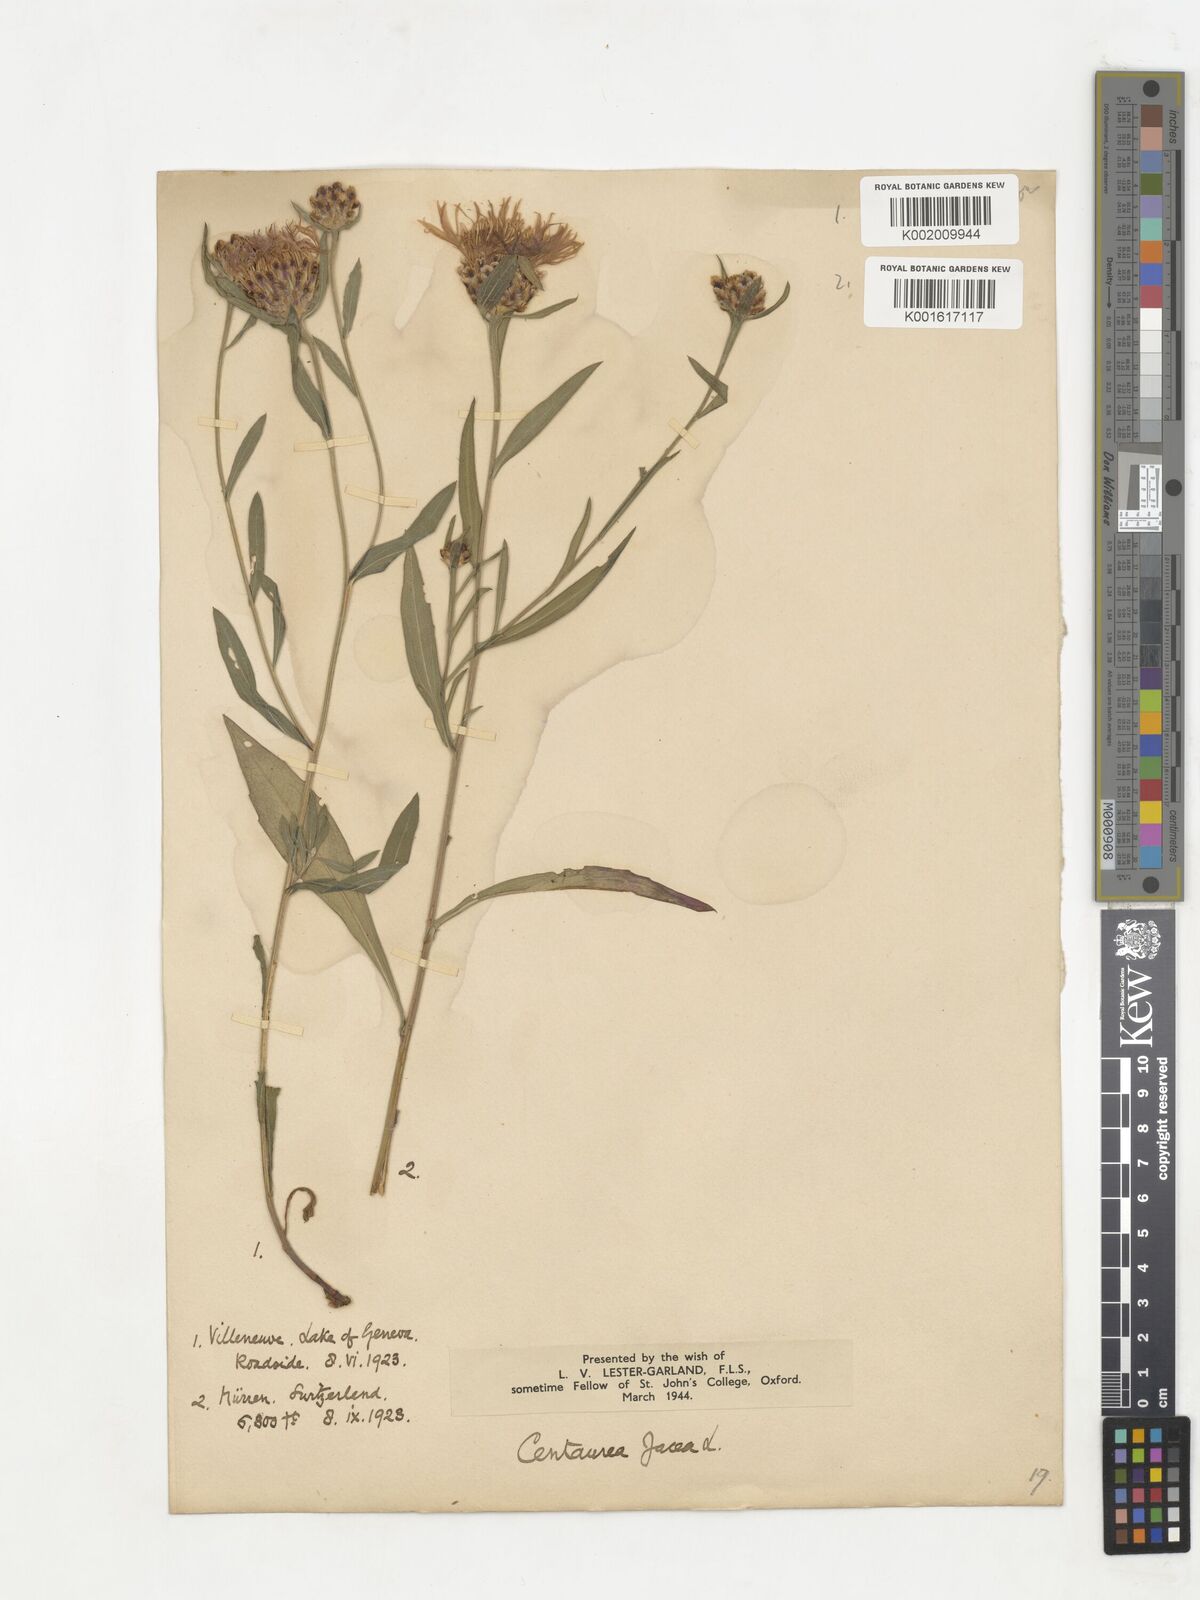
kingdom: Plantae
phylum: Tracheophyta
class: Magnoliopsida
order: Asterales
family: Asteraceae
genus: Centaurea
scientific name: Centaurea jacea
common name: Brown knapweed
